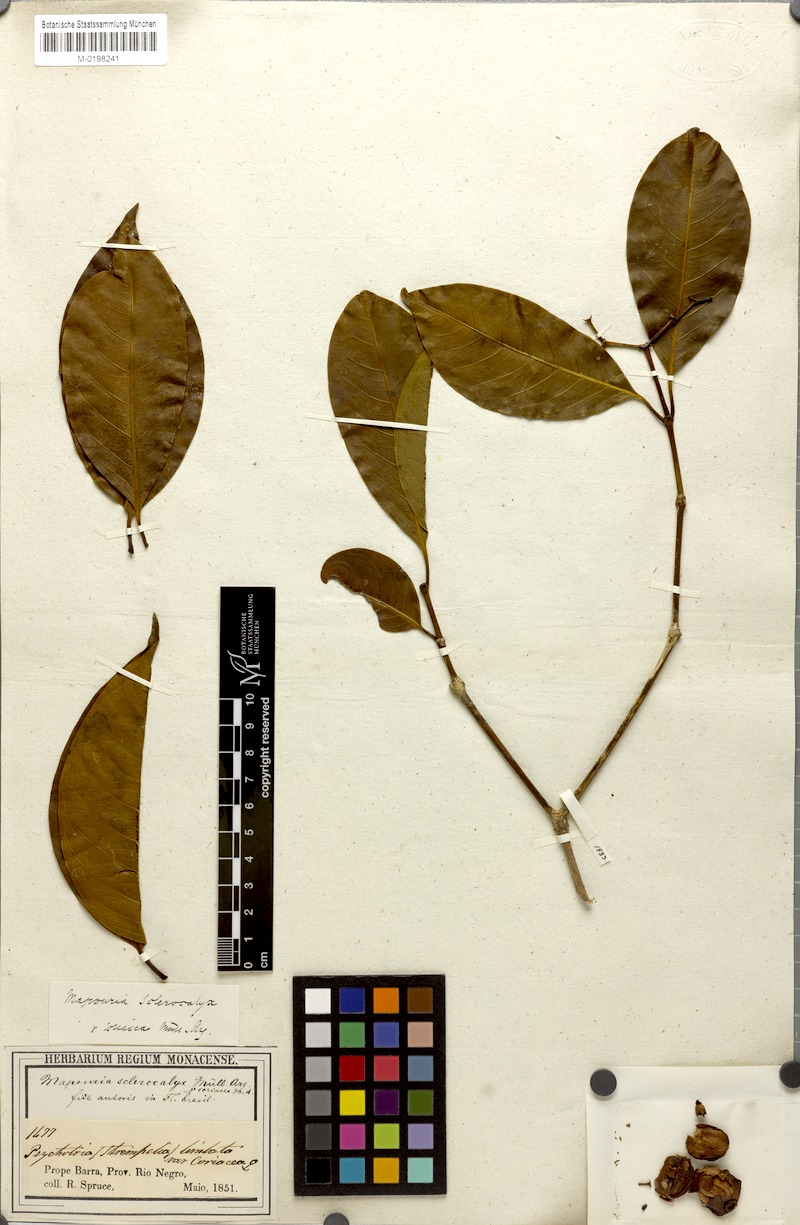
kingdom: Plantae
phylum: Tracheophyta
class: Magnoliopsida
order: Gentianales
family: Rubiaceae
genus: Rudgea
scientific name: Rudgea sclerocalyx
